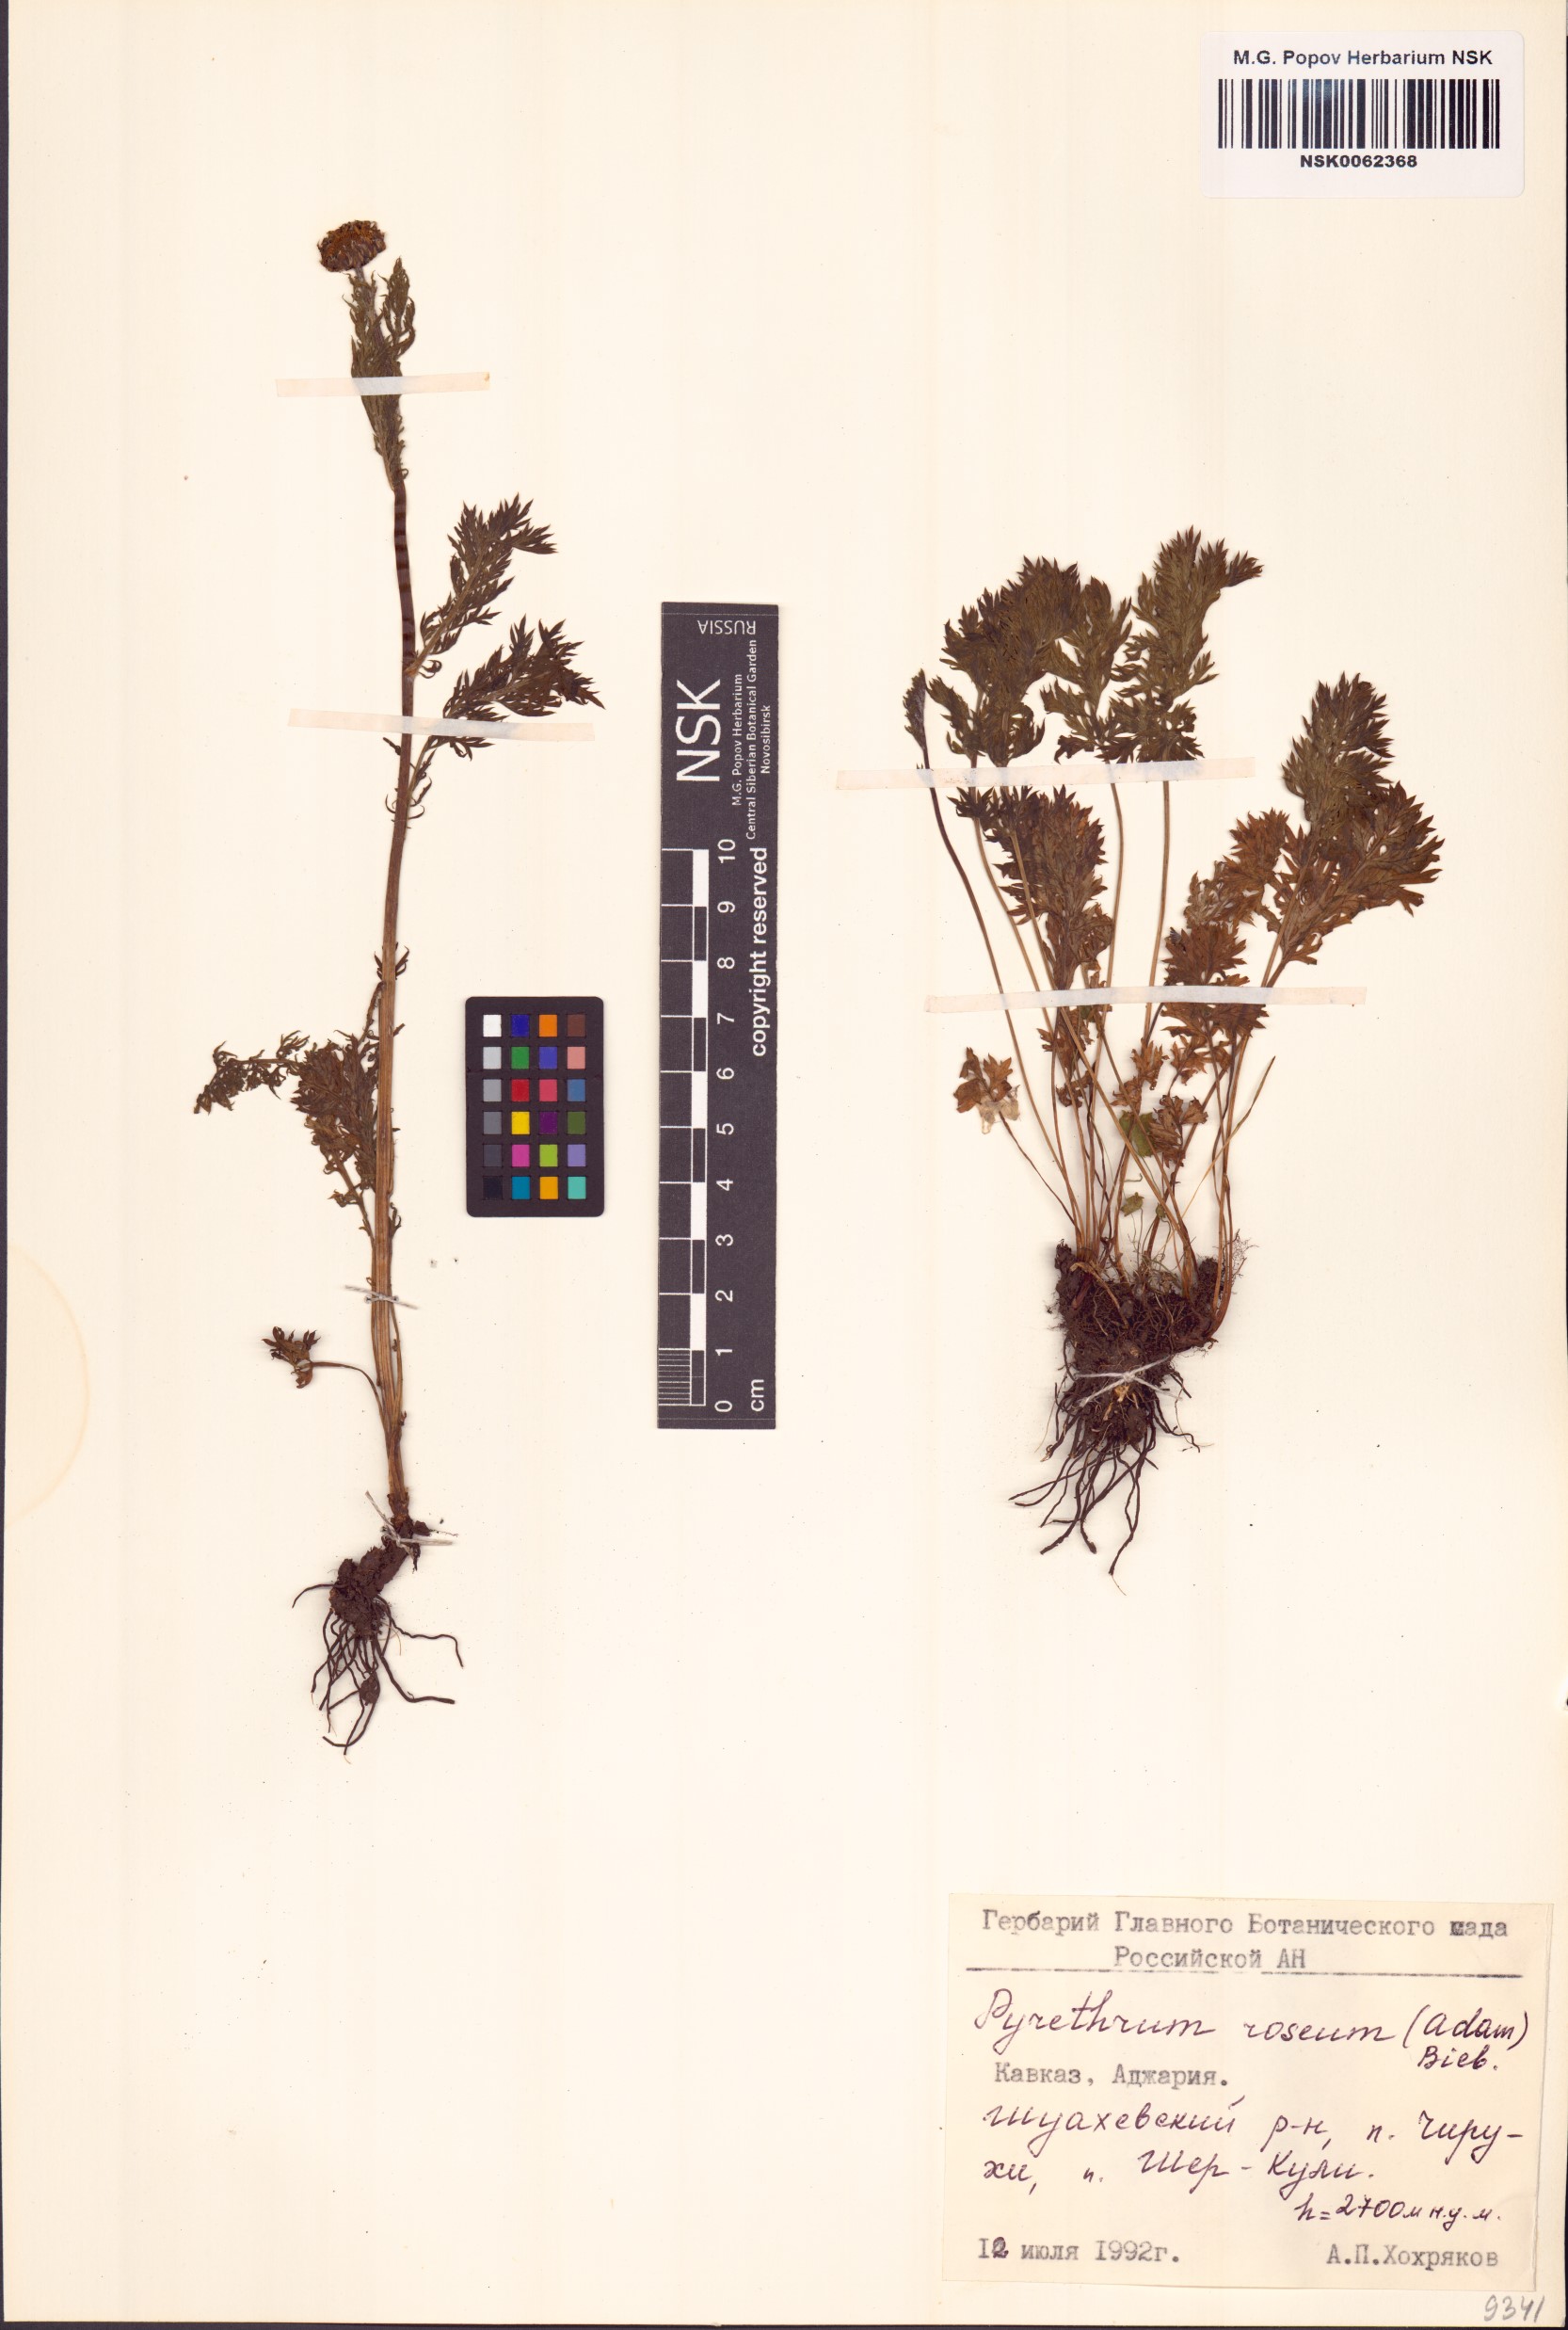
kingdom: Plantae
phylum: Tracheophyta
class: Magnoliopsida
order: Asterales
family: Asteraceae
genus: Tanacetum
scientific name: Tanacetum coccineum
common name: Pyrethum daisy
